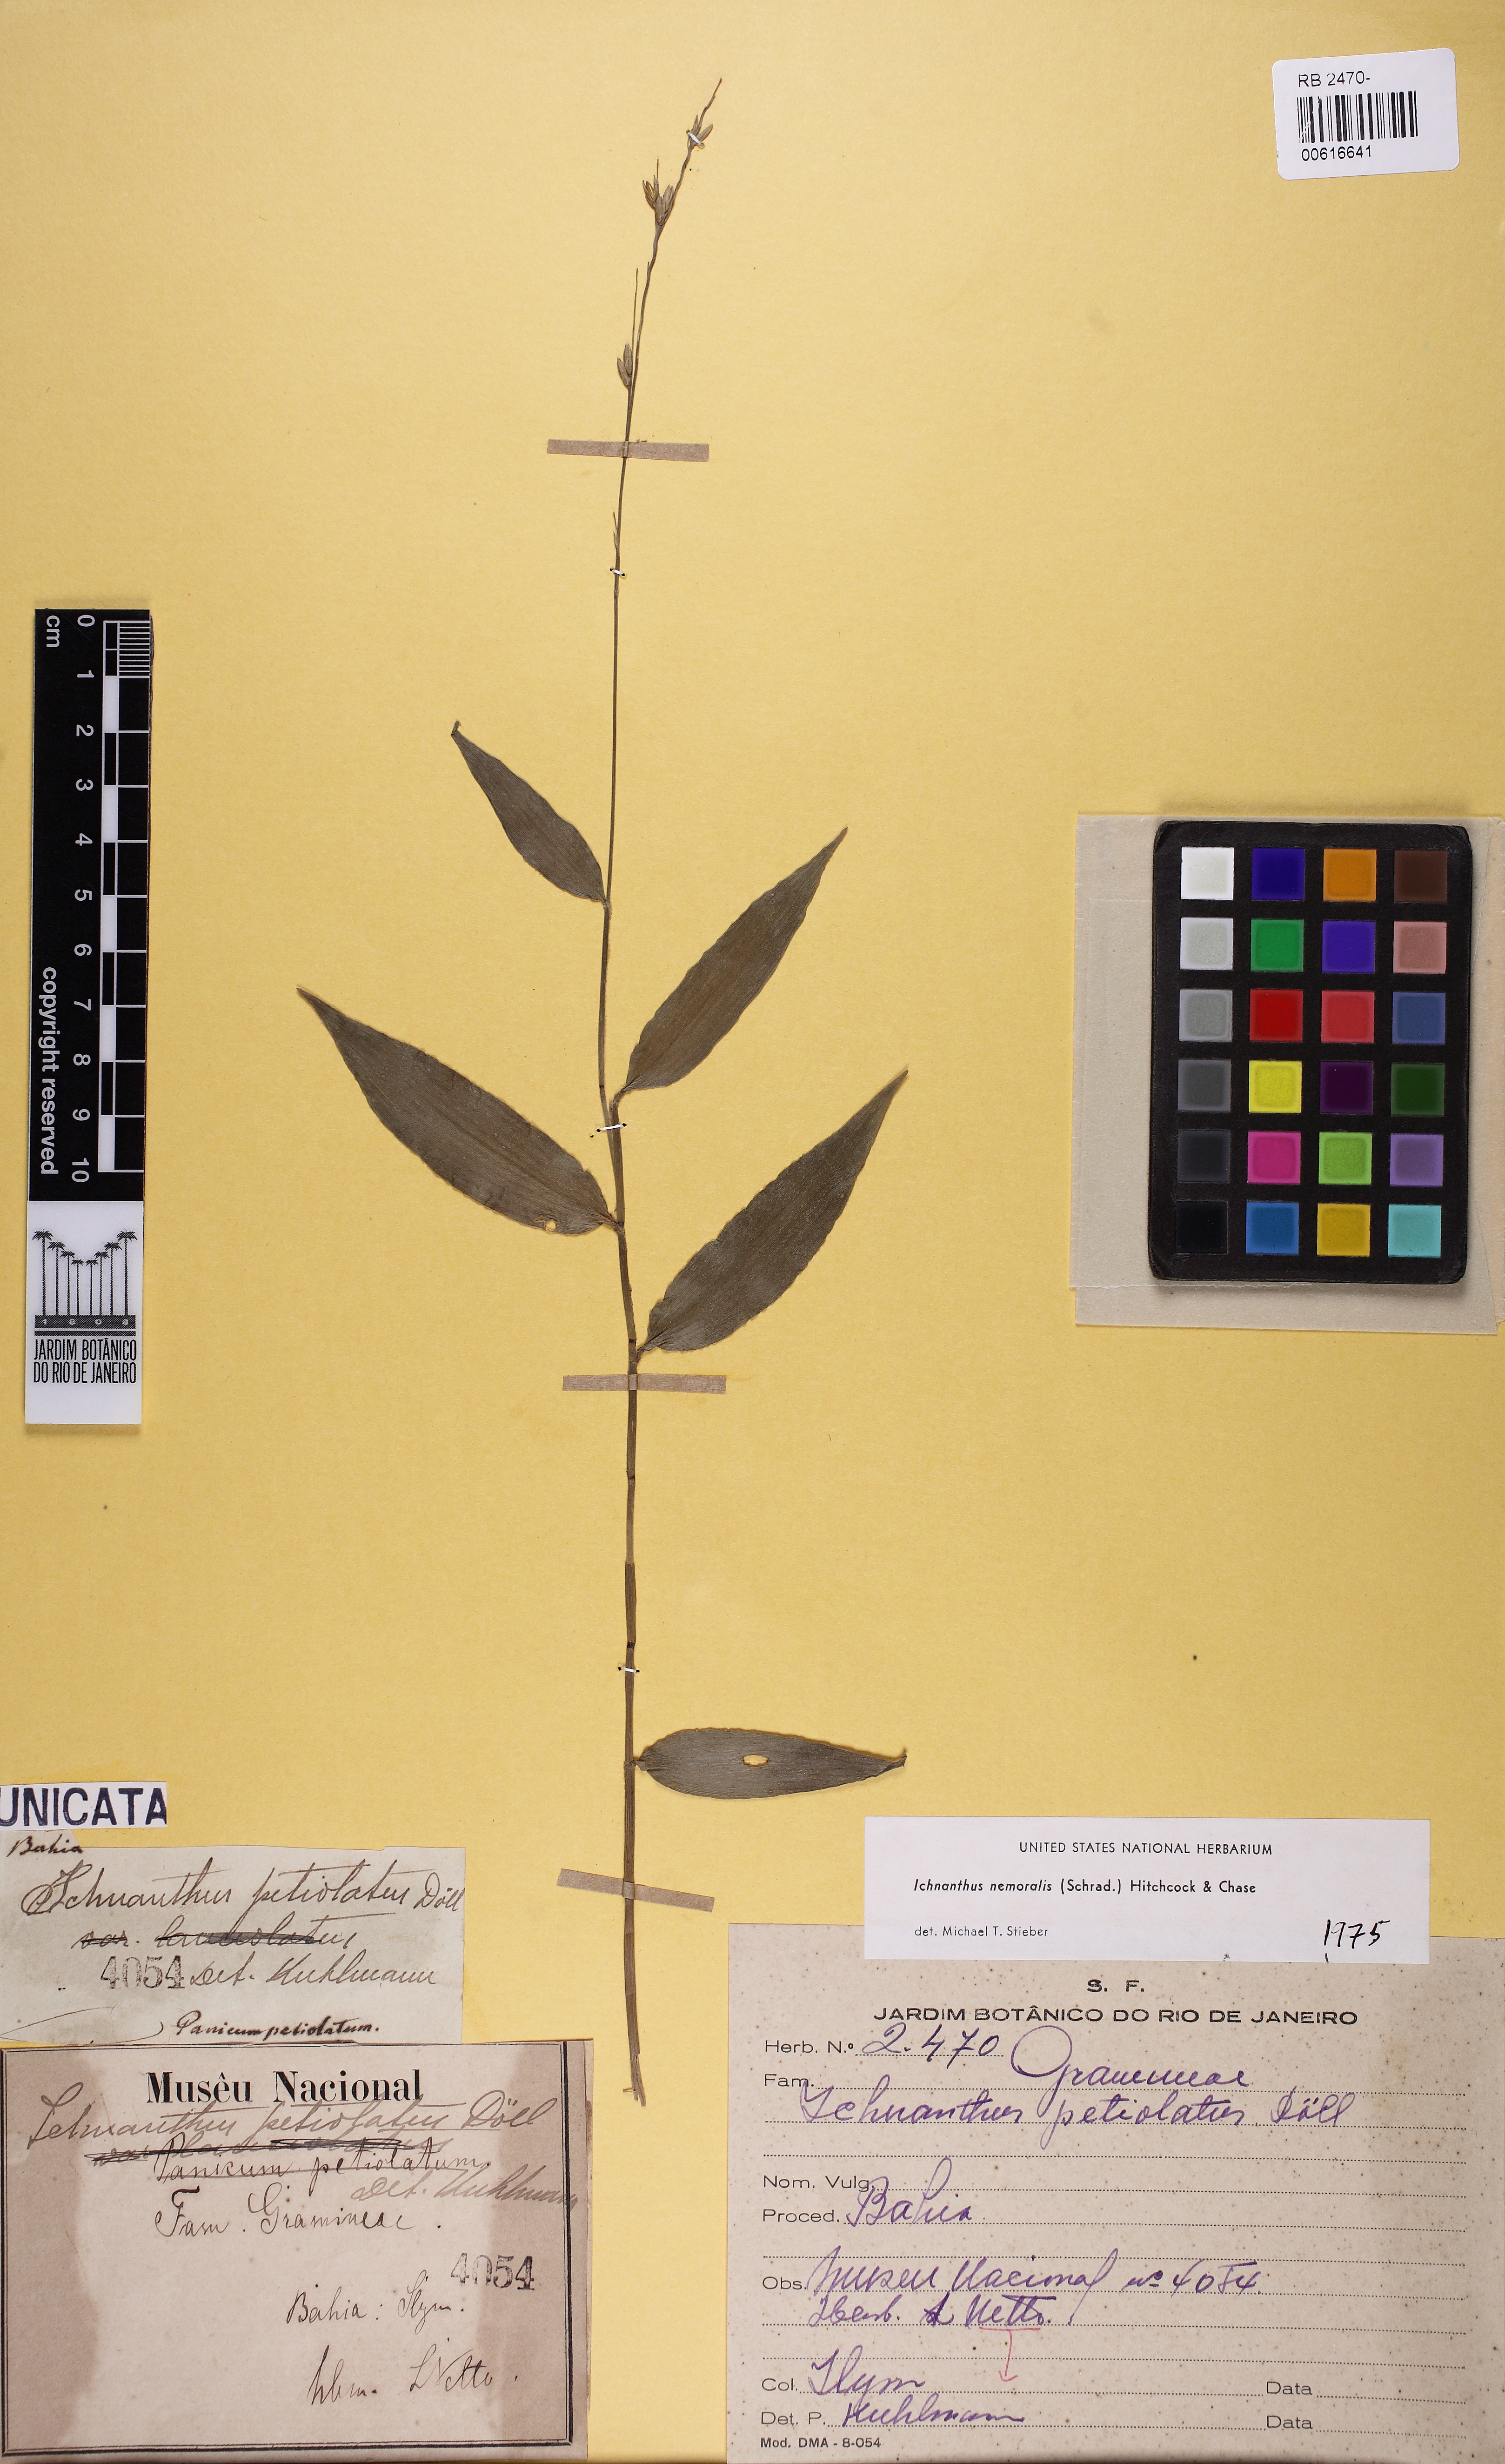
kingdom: Plantae
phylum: Tracheophyta
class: Liliopsida
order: Poales
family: Poaceae
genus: Ichnanthus
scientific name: Ichnanthus nemoralis
